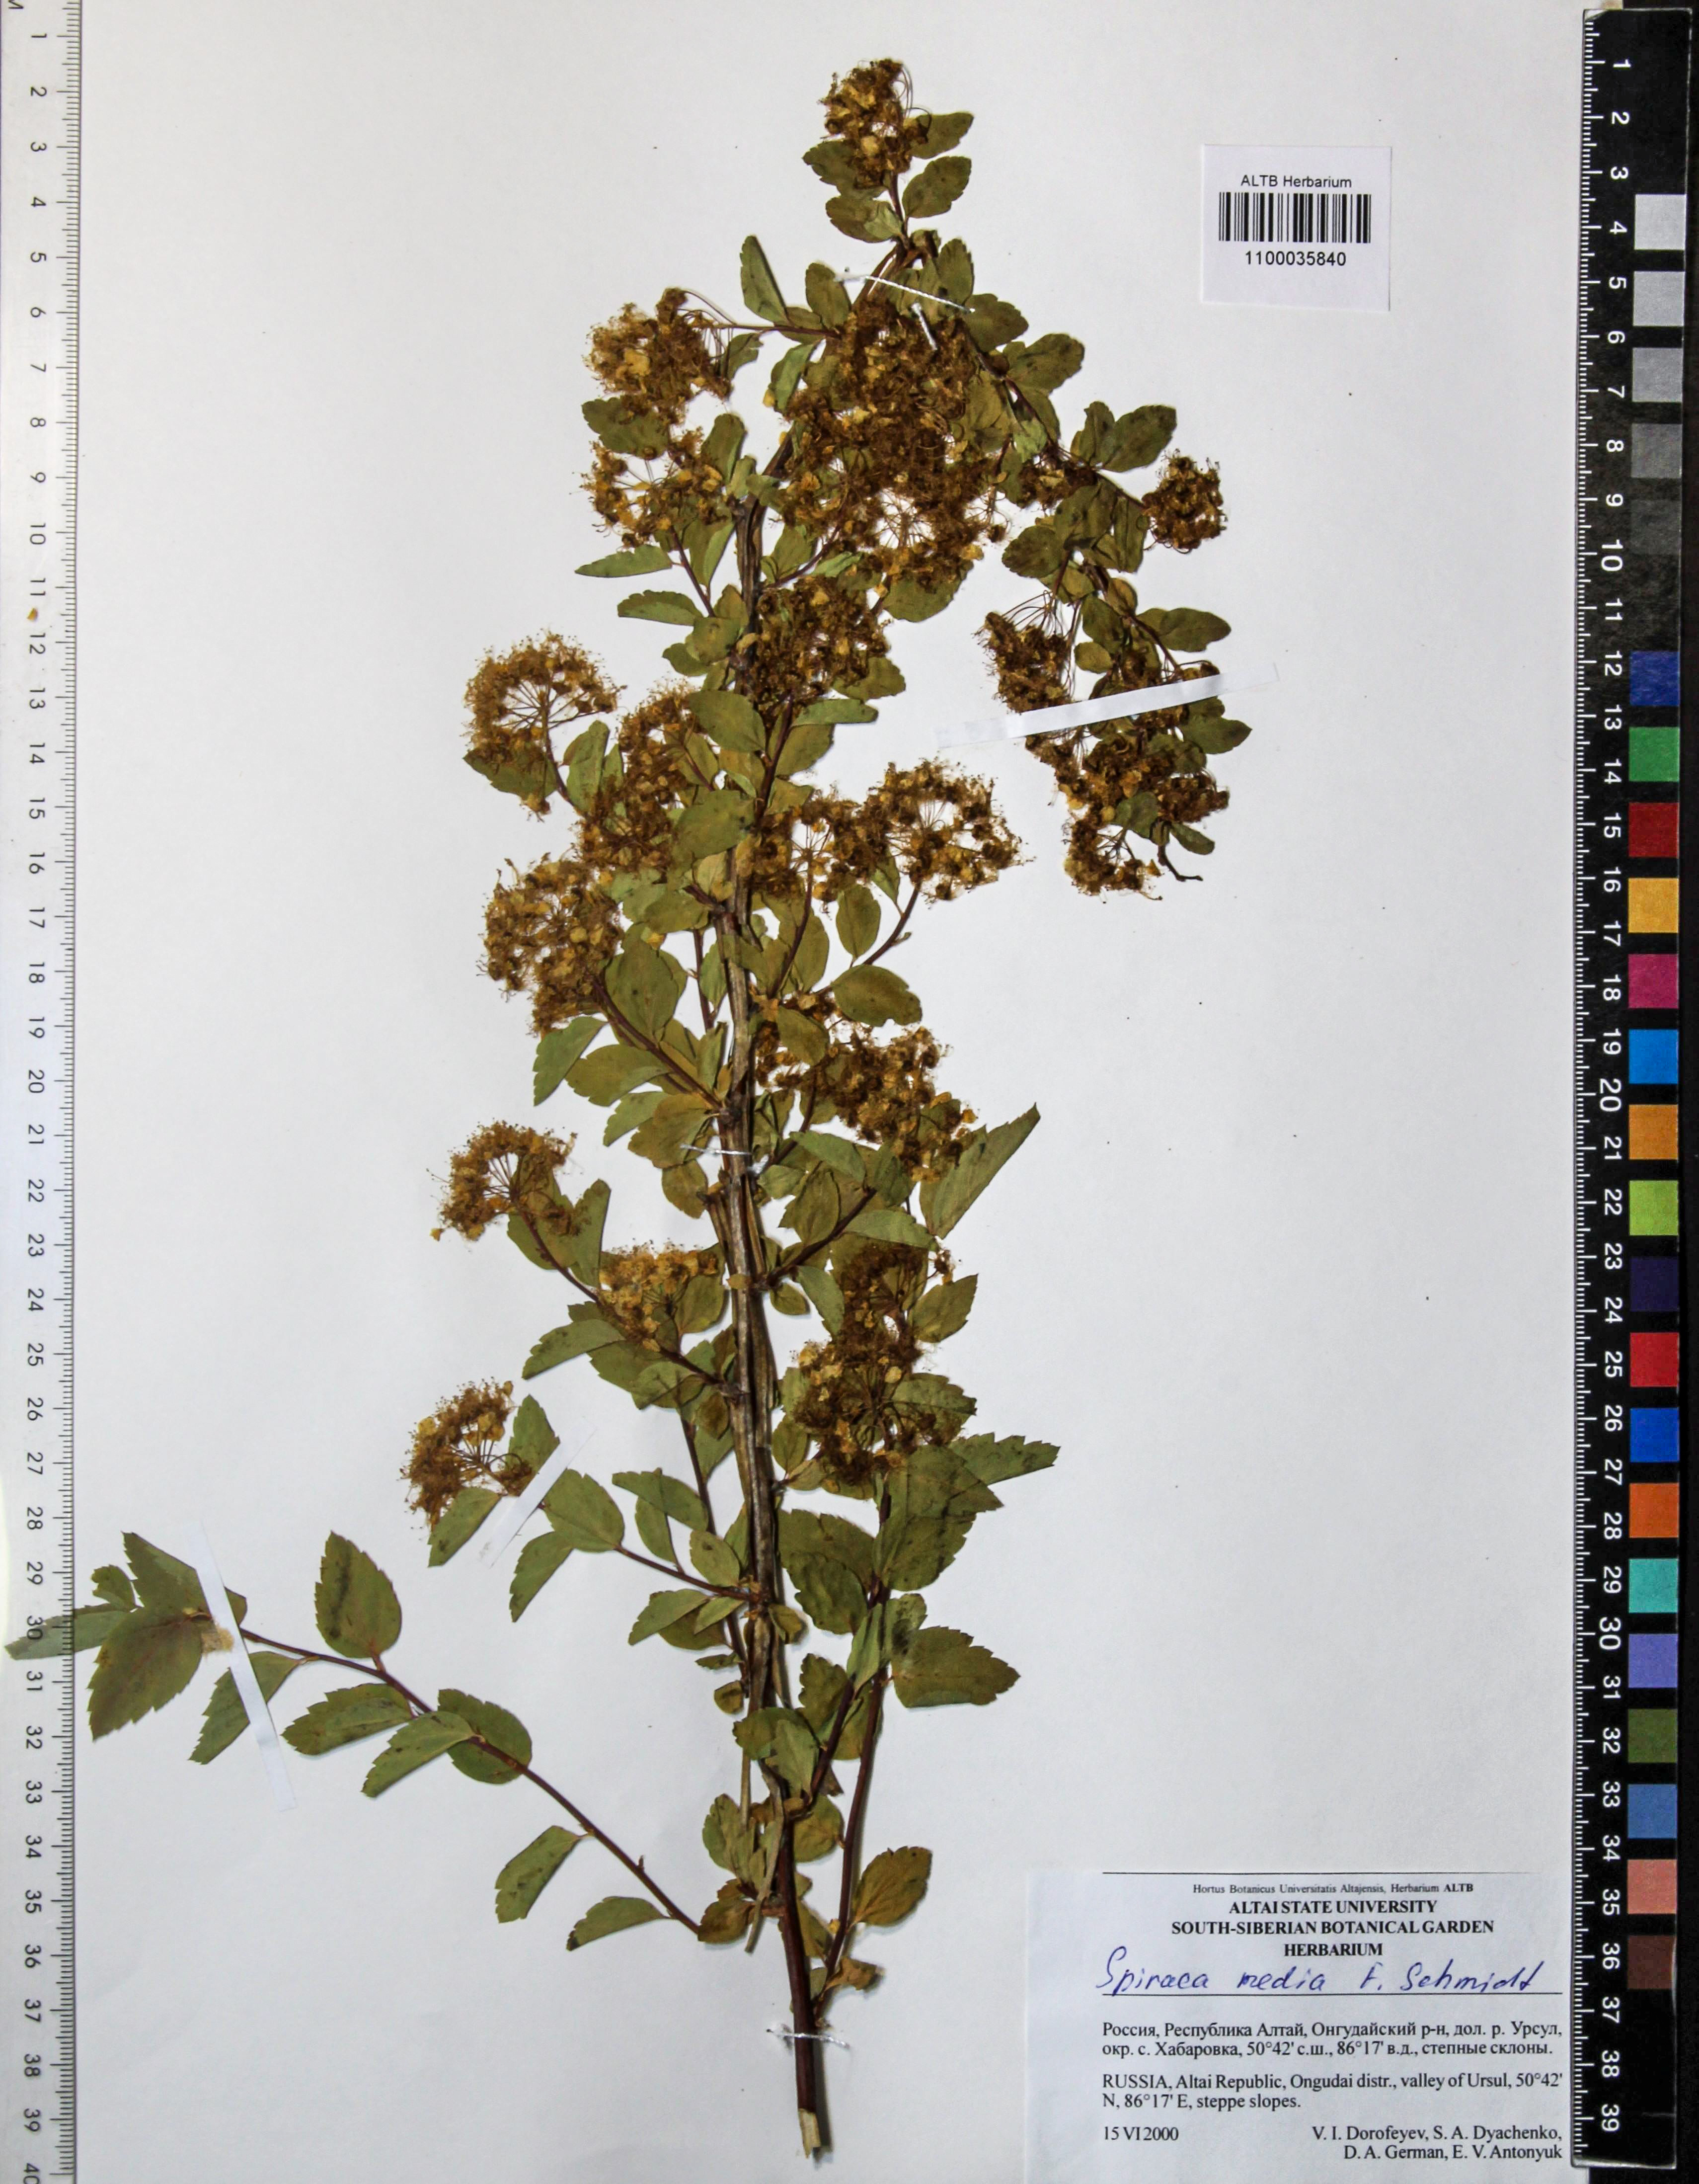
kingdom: Plantae
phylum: Tracheophyta
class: Magnoliopsida
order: Rosales
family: Rosaceae
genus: Spiraea
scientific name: Spiraea media
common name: Russian spiraea
